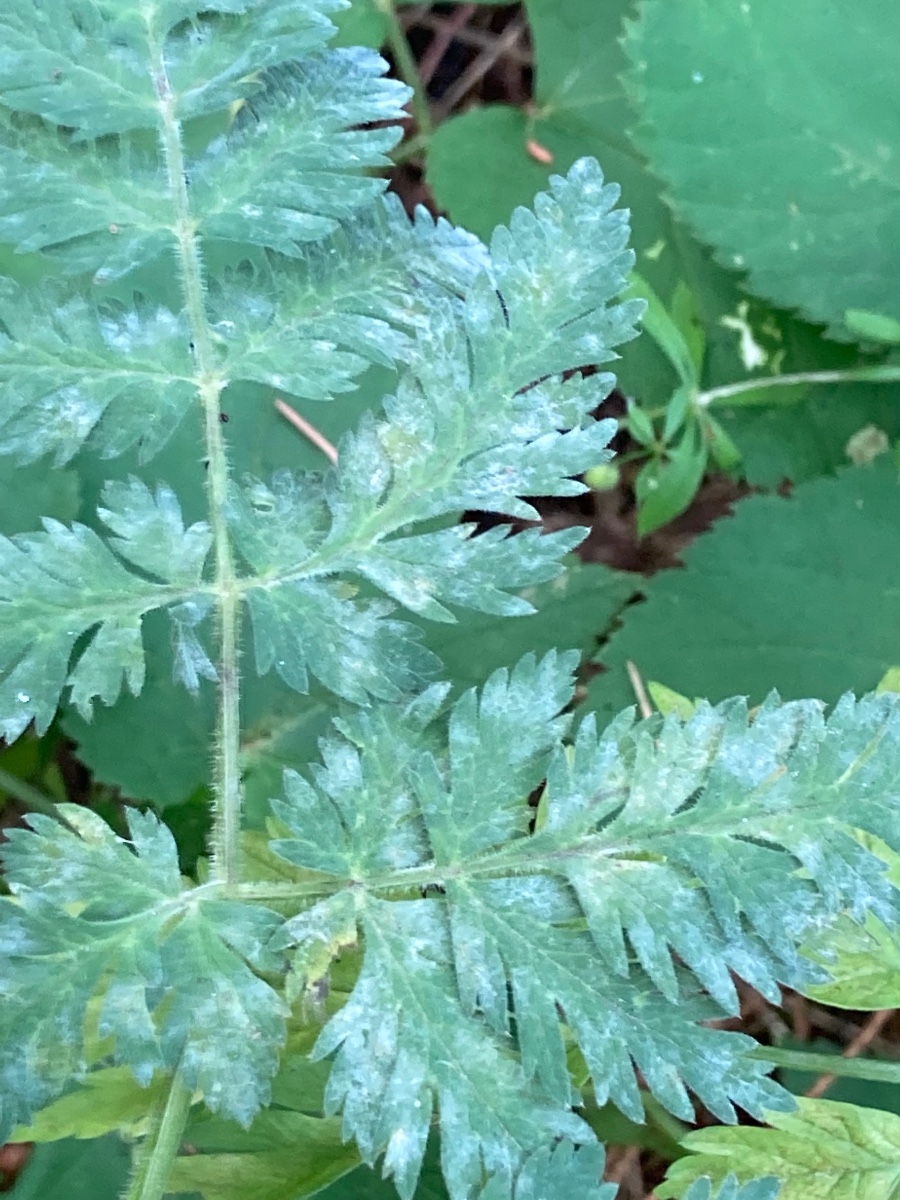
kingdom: Fungi
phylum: Ascomycota
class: Leotiomycetes
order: Helotiales
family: Erysiphaceae
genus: Erysiphe
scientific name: Erysiphe heraclei
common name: skærmplante-meldug
